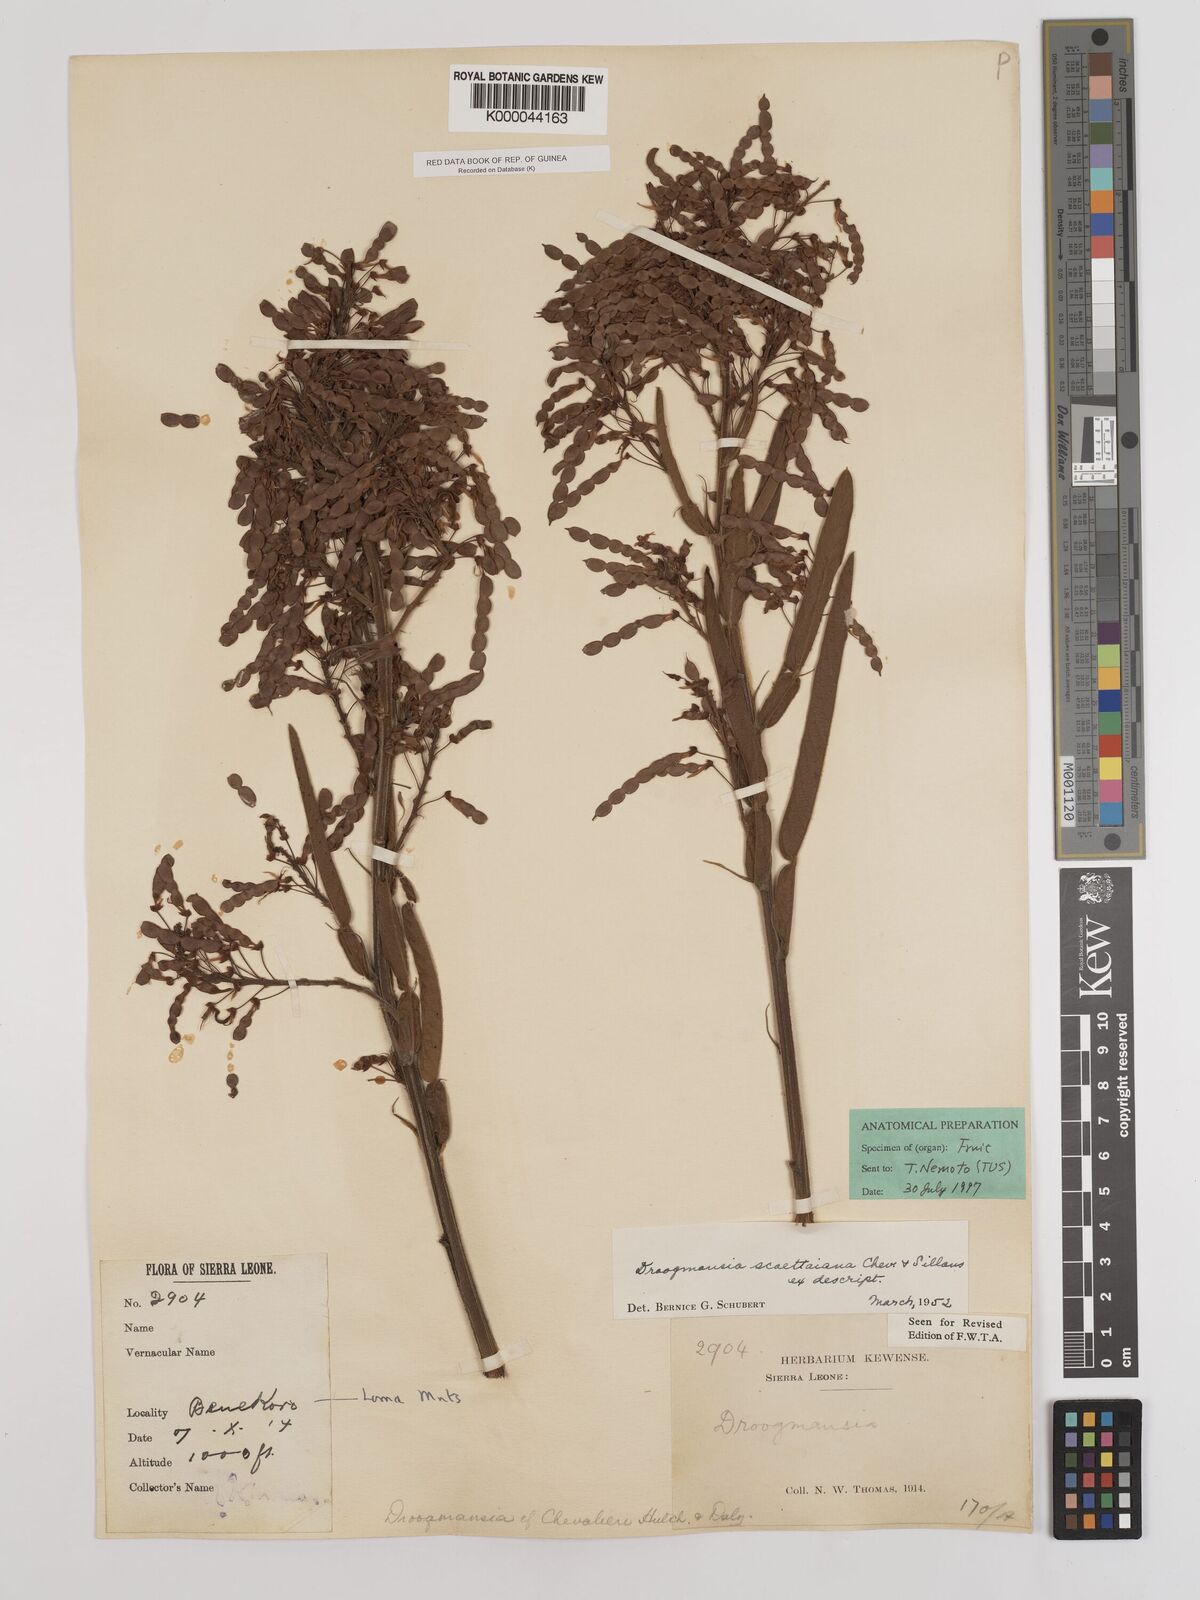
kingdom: Plantae
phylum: Tracheophyta
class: Magnoliopsida
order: Fabales
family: Fabaceae
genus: Droogmansia
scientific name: Droogmansia scaettaiana
